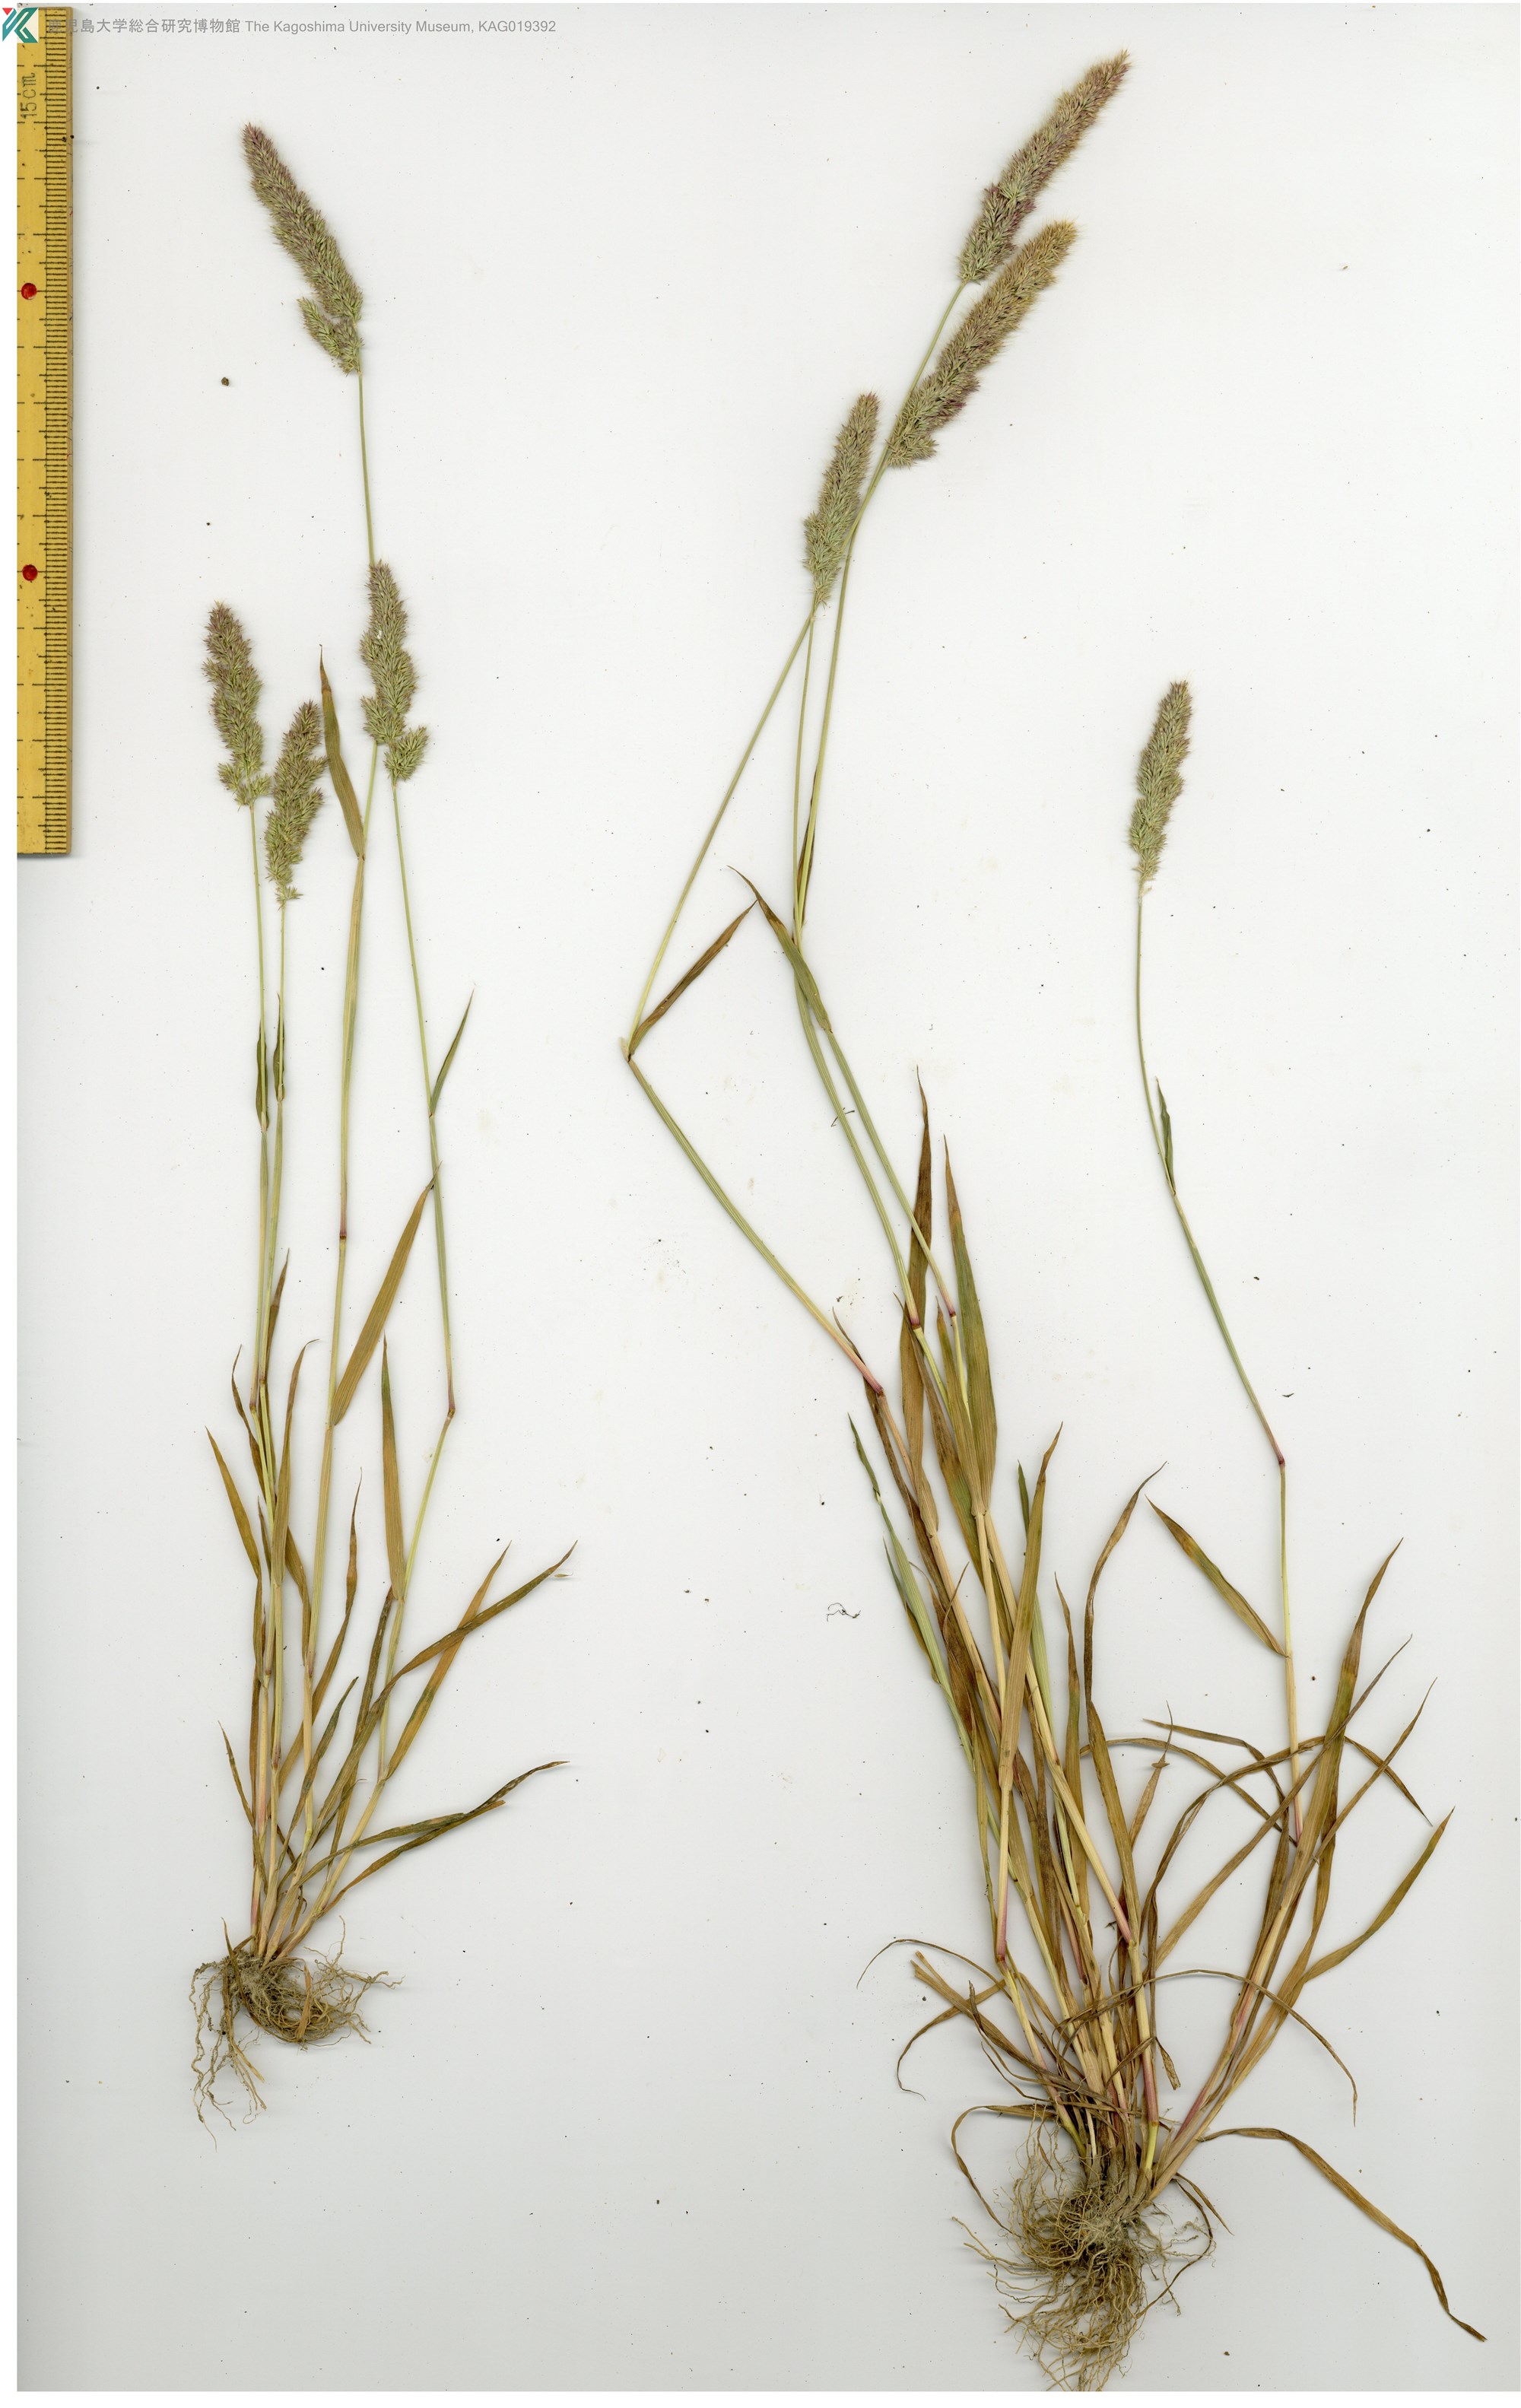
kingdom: Plantae
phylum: Tracheophyta
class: Liliopsida
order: Poales
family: Poaceae
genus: Polypogon
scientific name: Polypogon fugax
